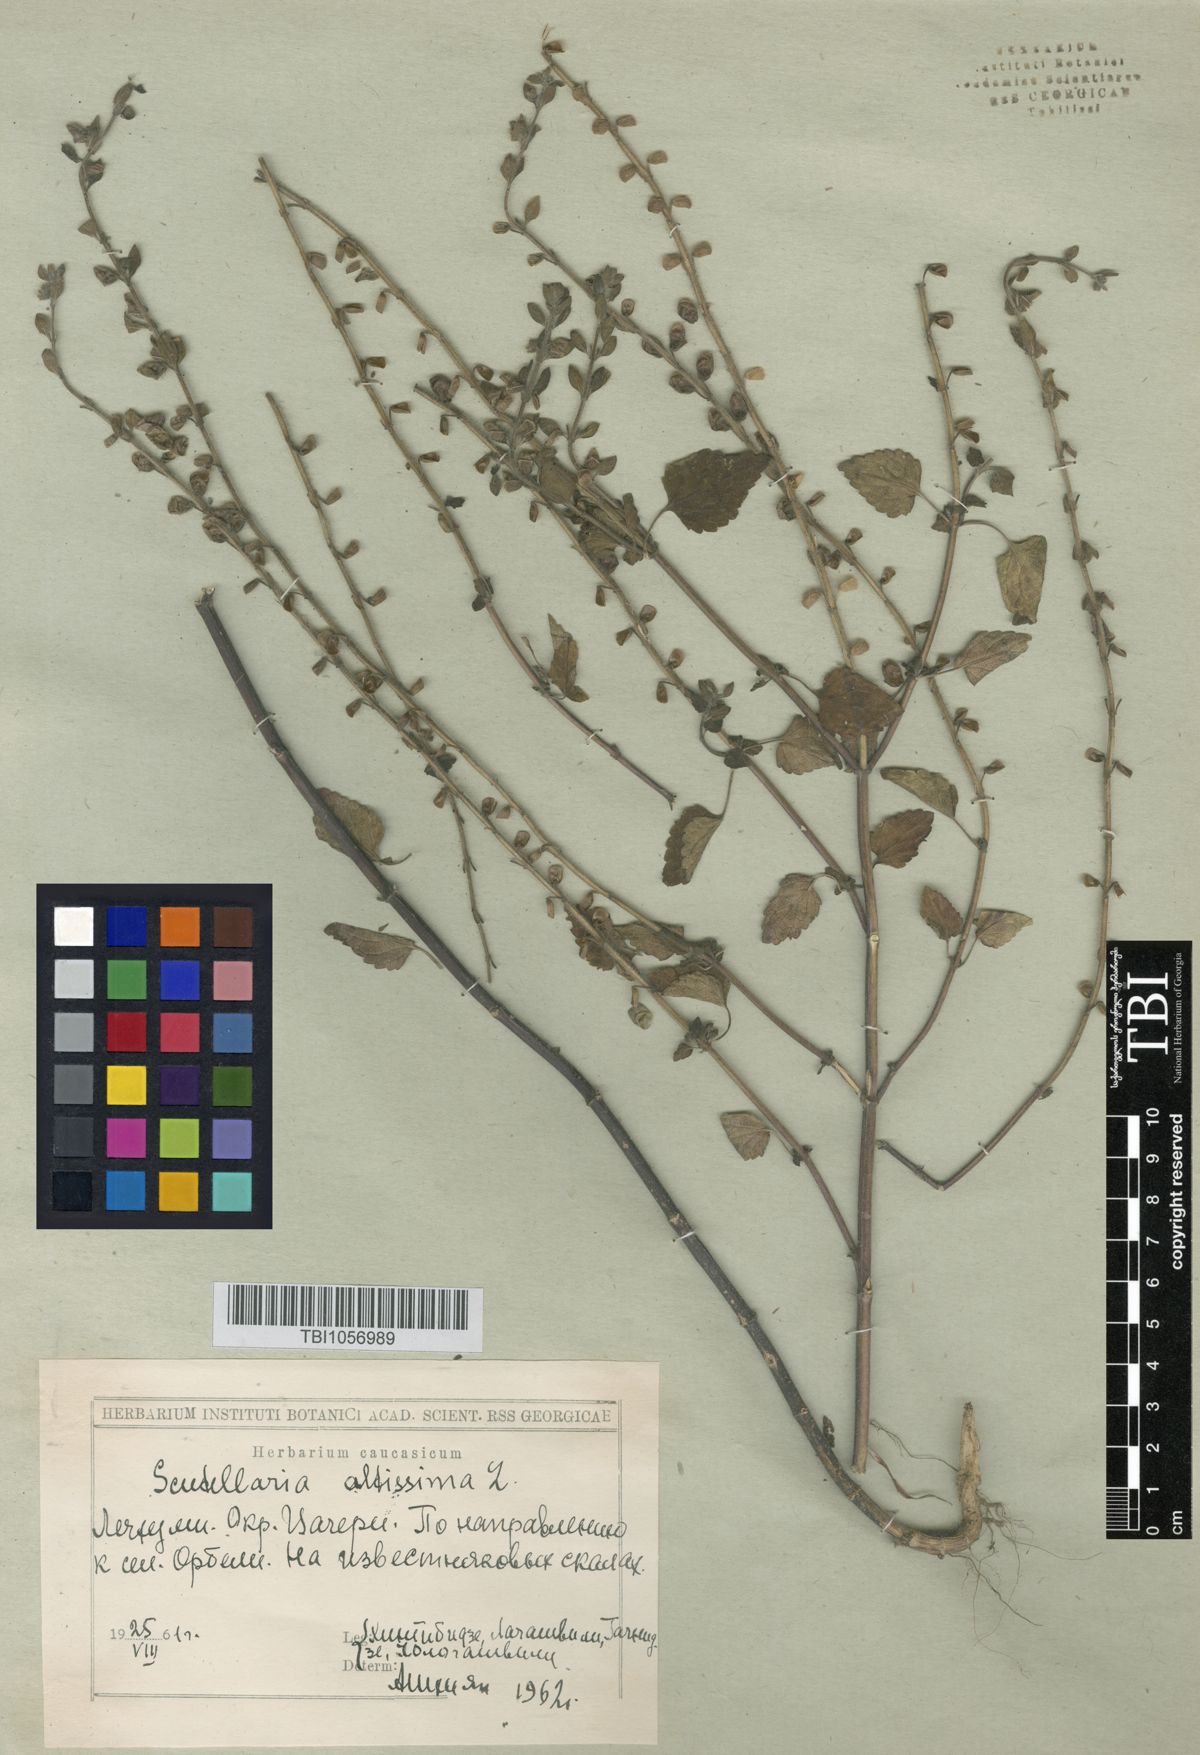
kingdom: Plantae
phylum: Tracheophyta
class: Magnoliopsida
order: Lamiales
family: Lamiaceae
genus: Scutellaria
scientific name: Scutellaria altissima
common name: Somerset skullcap
